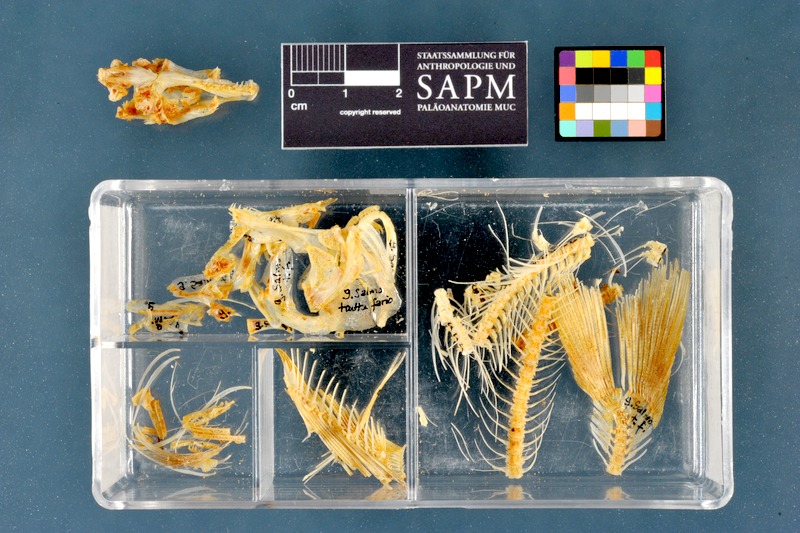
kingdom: Animalia
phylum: Chordata
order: Salmoniformes
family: Salmonidae
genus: Salmo
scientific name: Salmo trutta
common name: Brown trout
